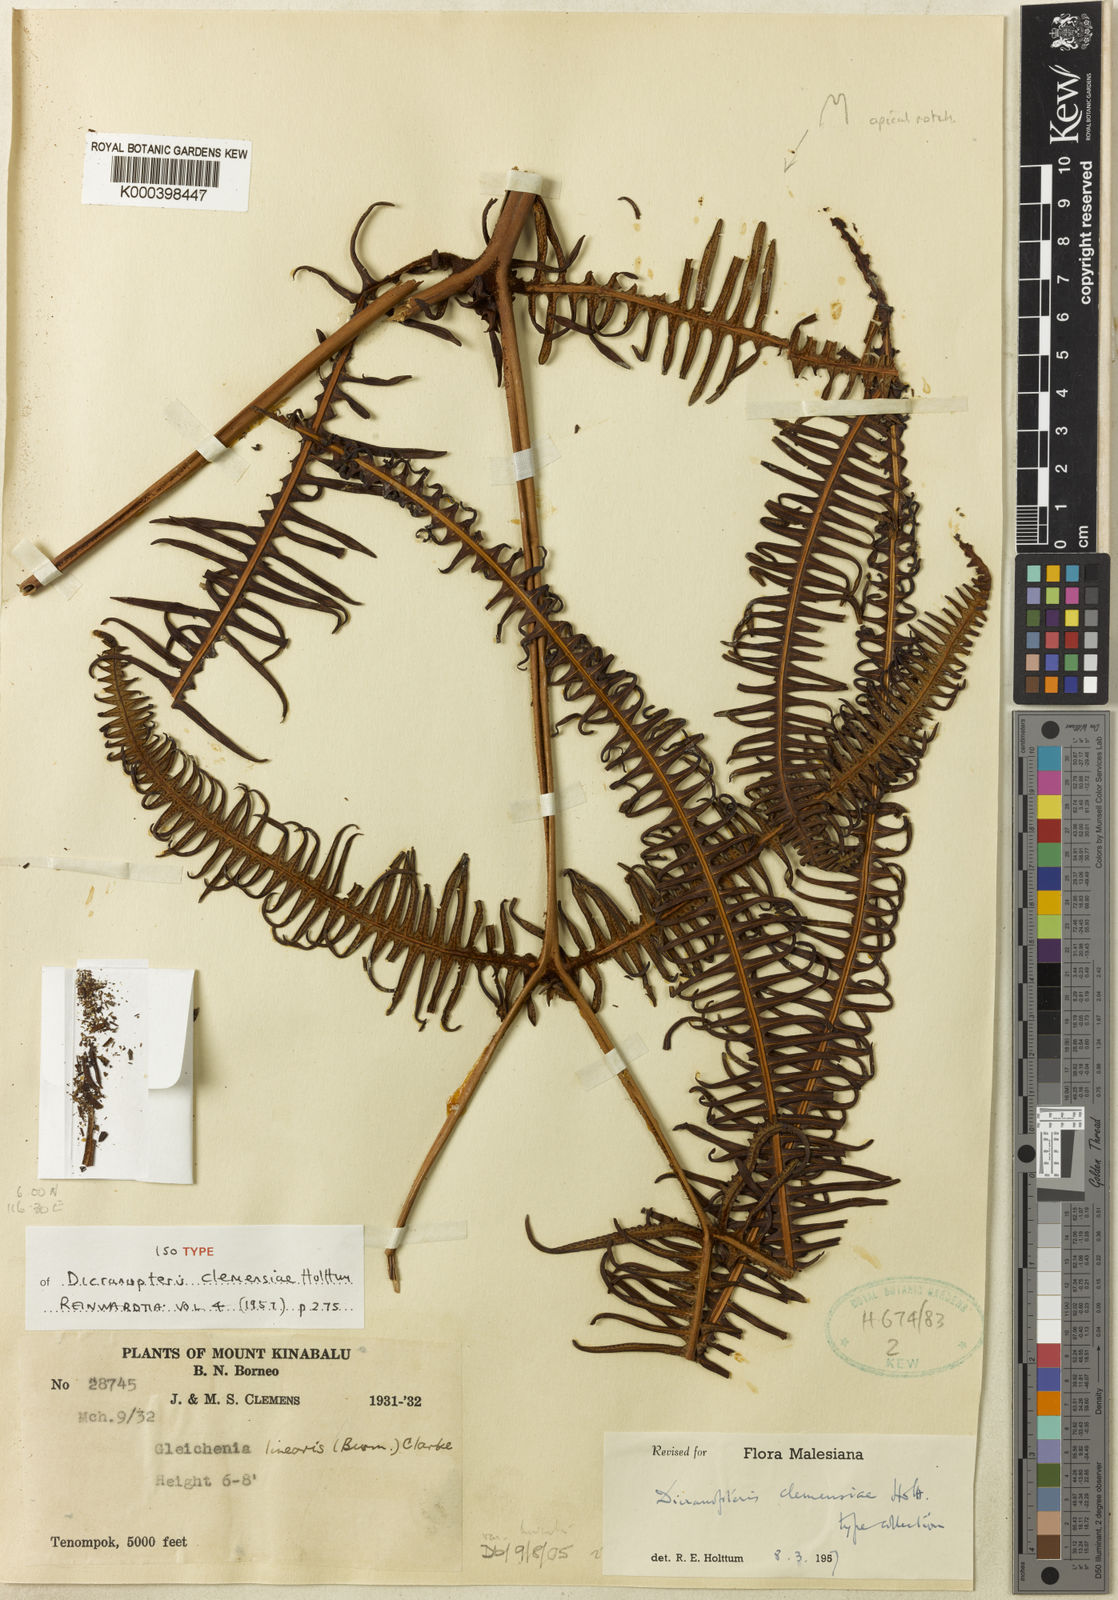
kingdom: Plantae
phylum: Tracheophyta
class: Polypodiopsida
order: Gleicheniales
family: Gleicheniaceae
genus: Dicranopteris
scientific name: Dicranopteris clemensiae
